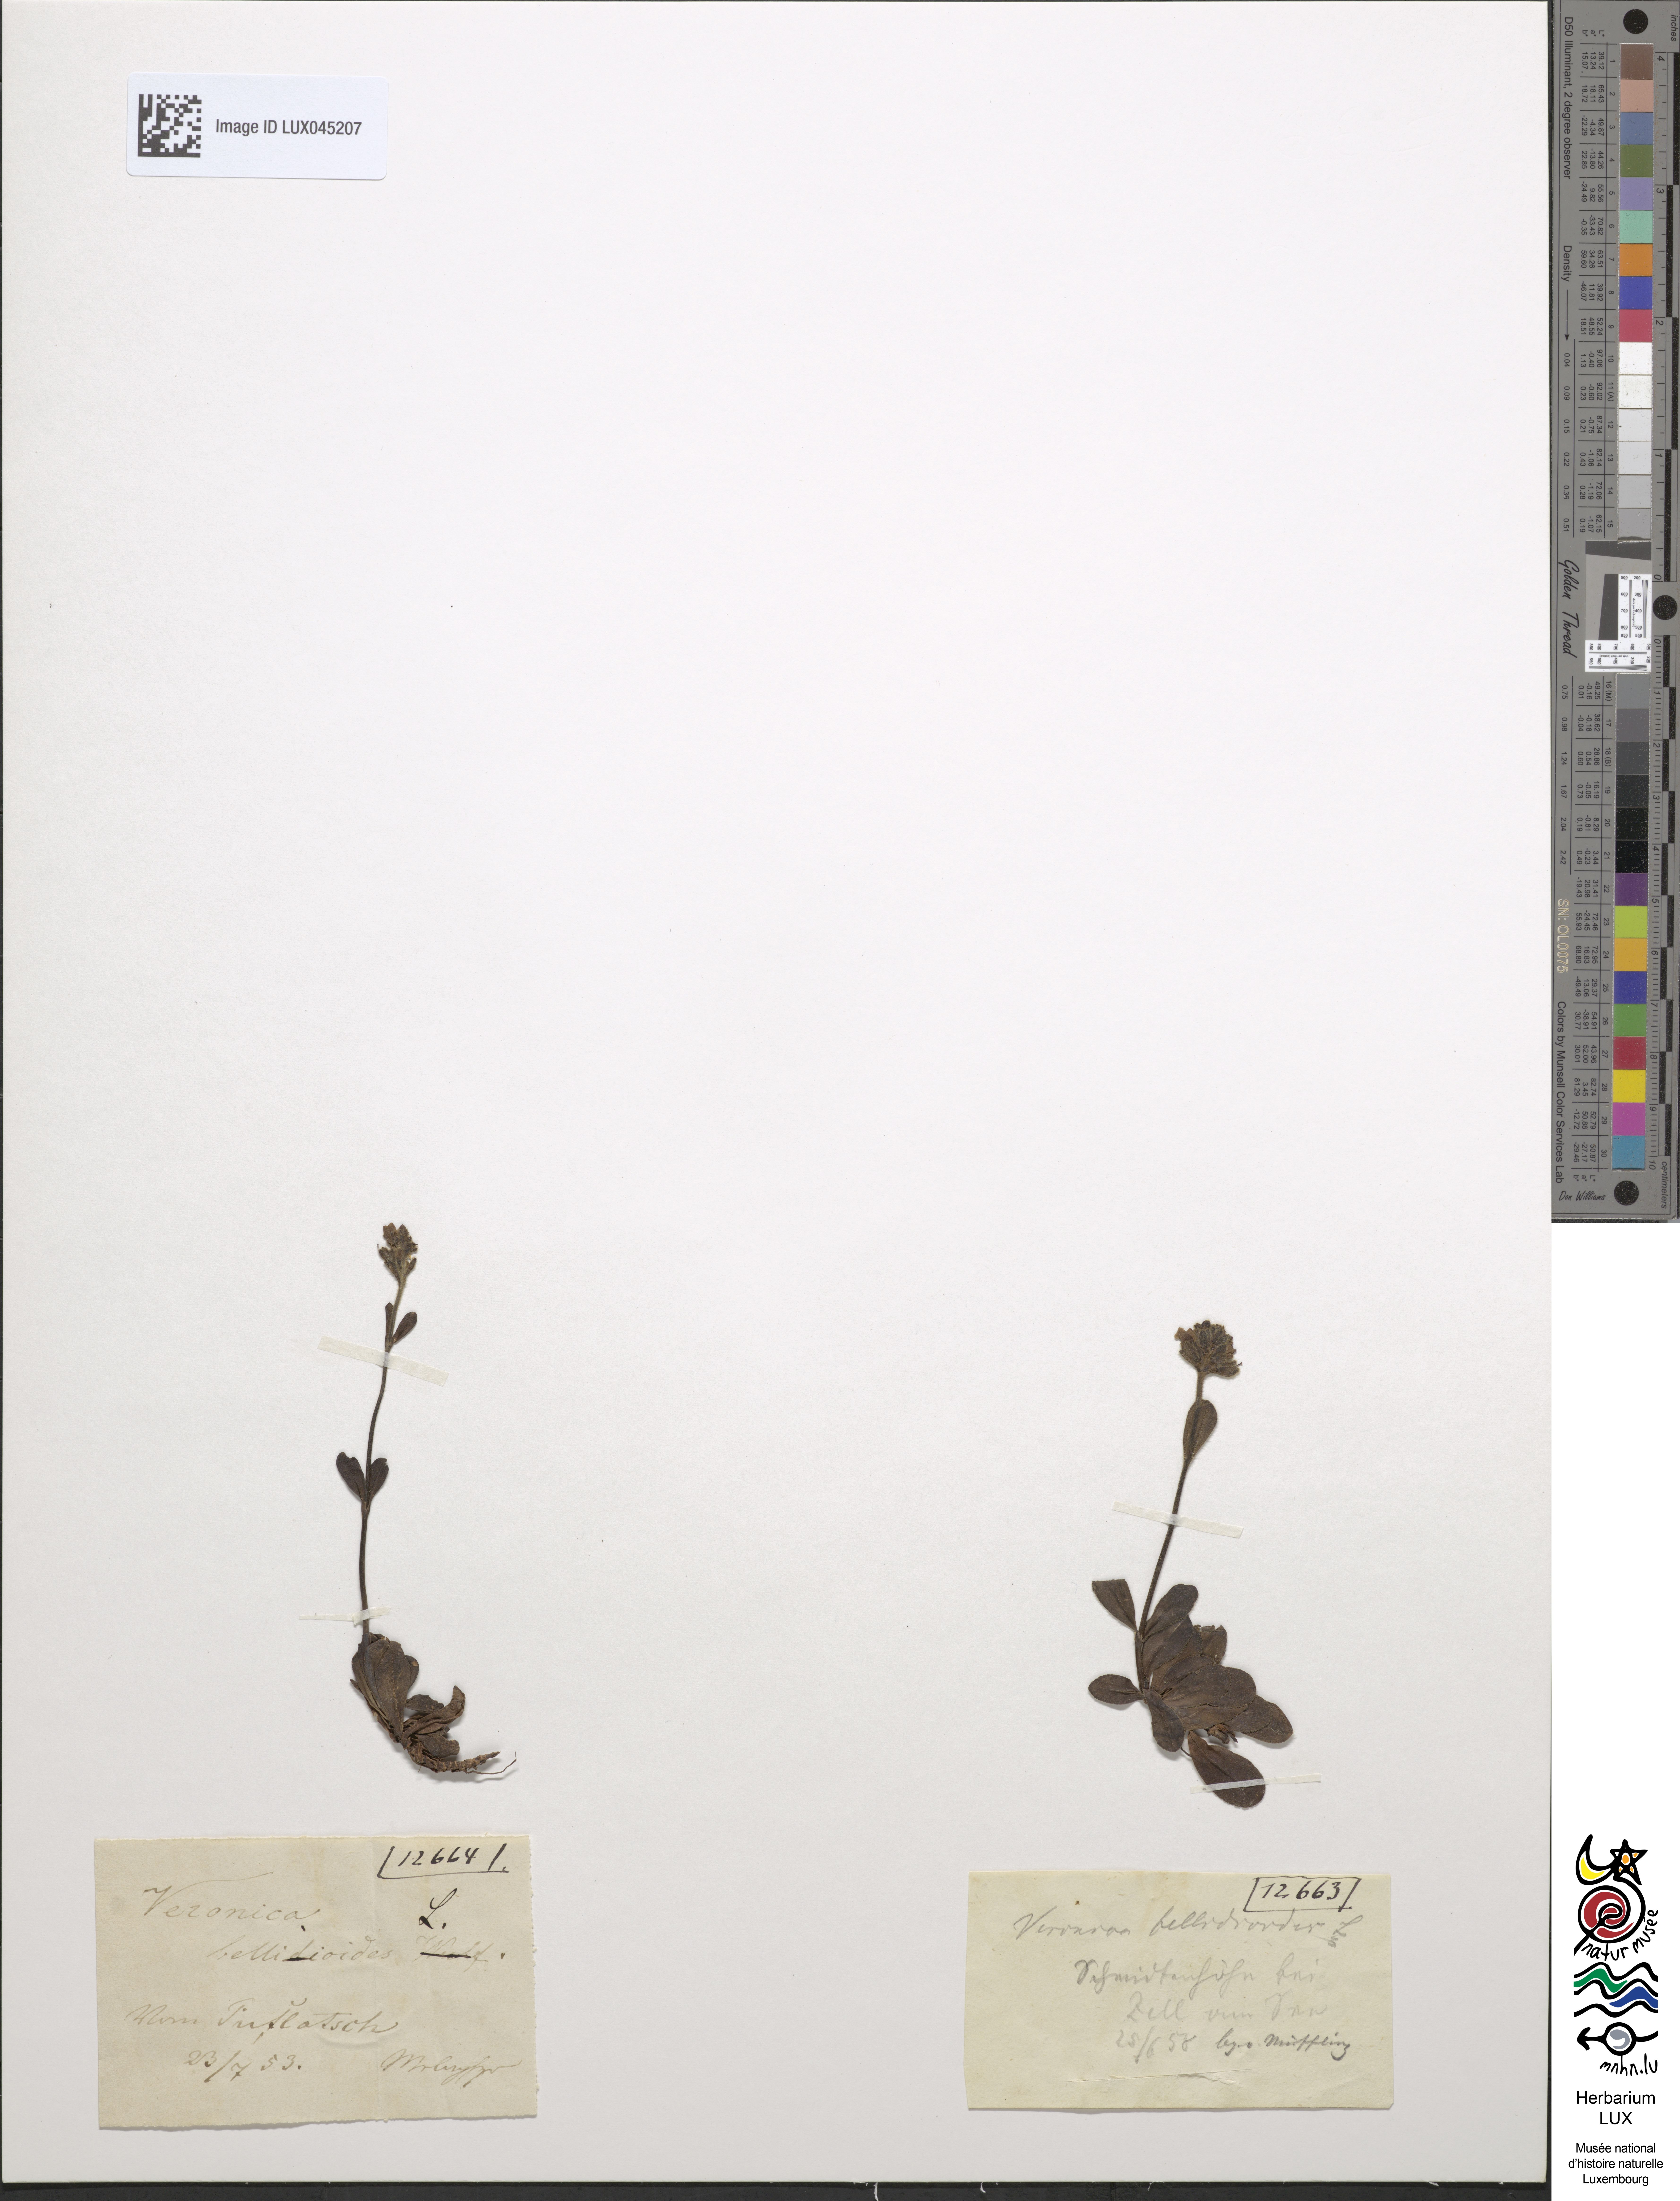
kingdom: Plantae
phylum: Tracheophyta
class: Magnoliopsida
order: Lamiales
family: Plantaginaceae
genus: Veronica
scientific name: Veronica bellidioides
